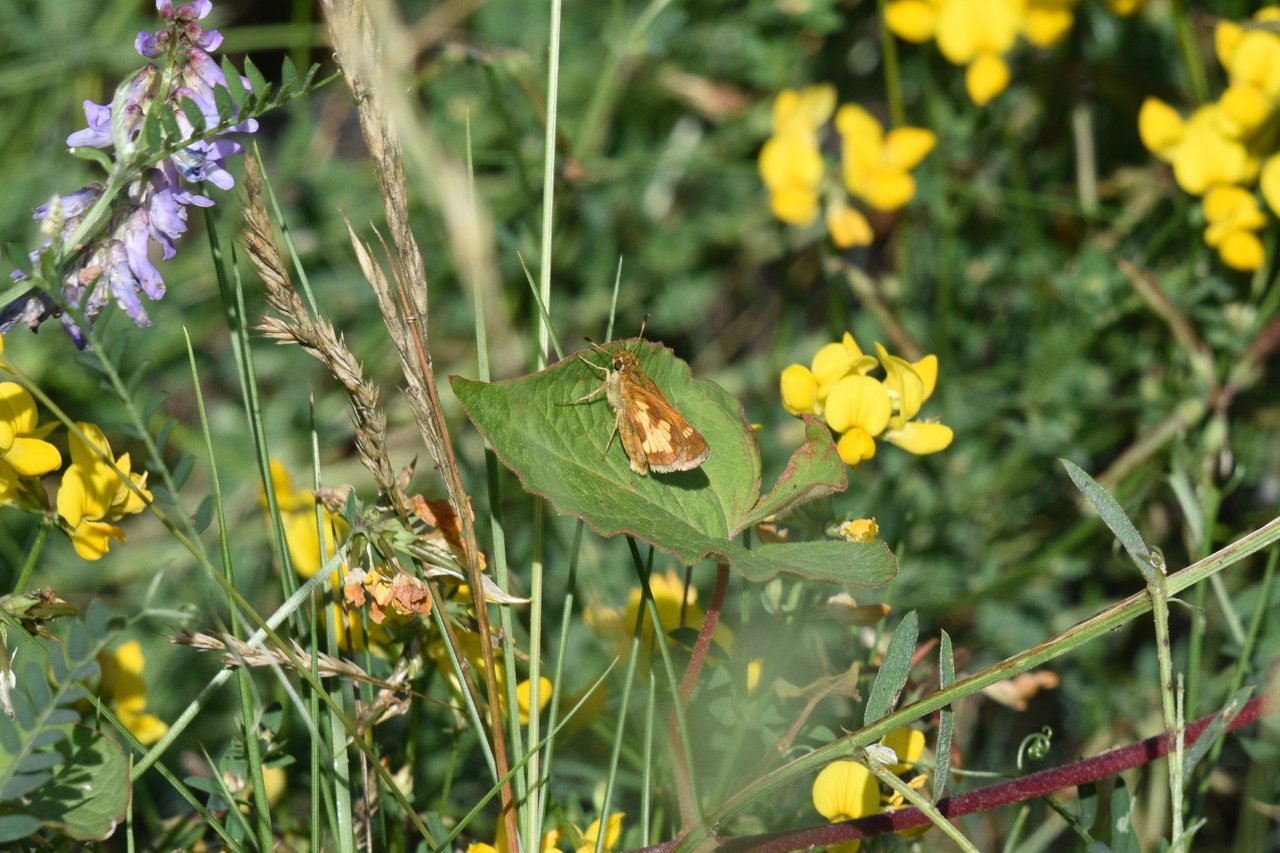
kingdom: Animalia
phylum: Arthropoda
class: Insecta
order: Lepidoptera
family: Hesperiidae
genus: Polites
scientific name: Polites coras
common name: Peck's Skipper
